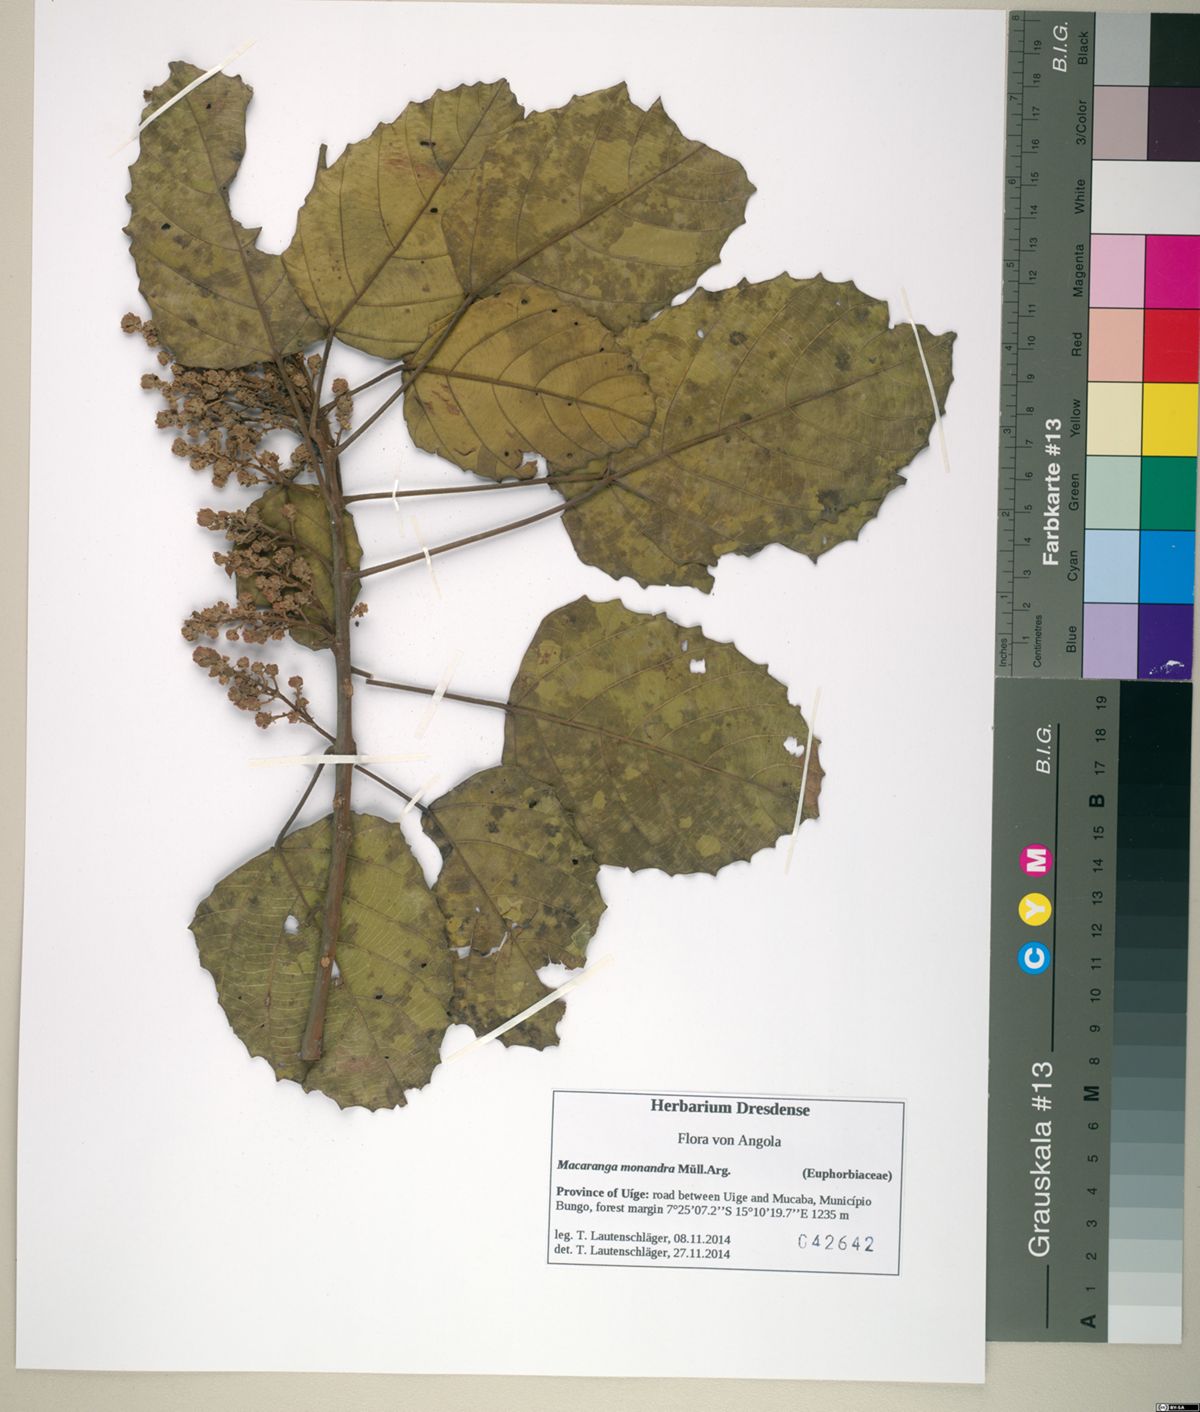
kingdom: Plantae
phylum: Tracheophyta
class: Magnoliopsida
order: Malpighiales
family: Euphorbiaceae
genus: Macaranga
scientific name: Macaranga monandra
